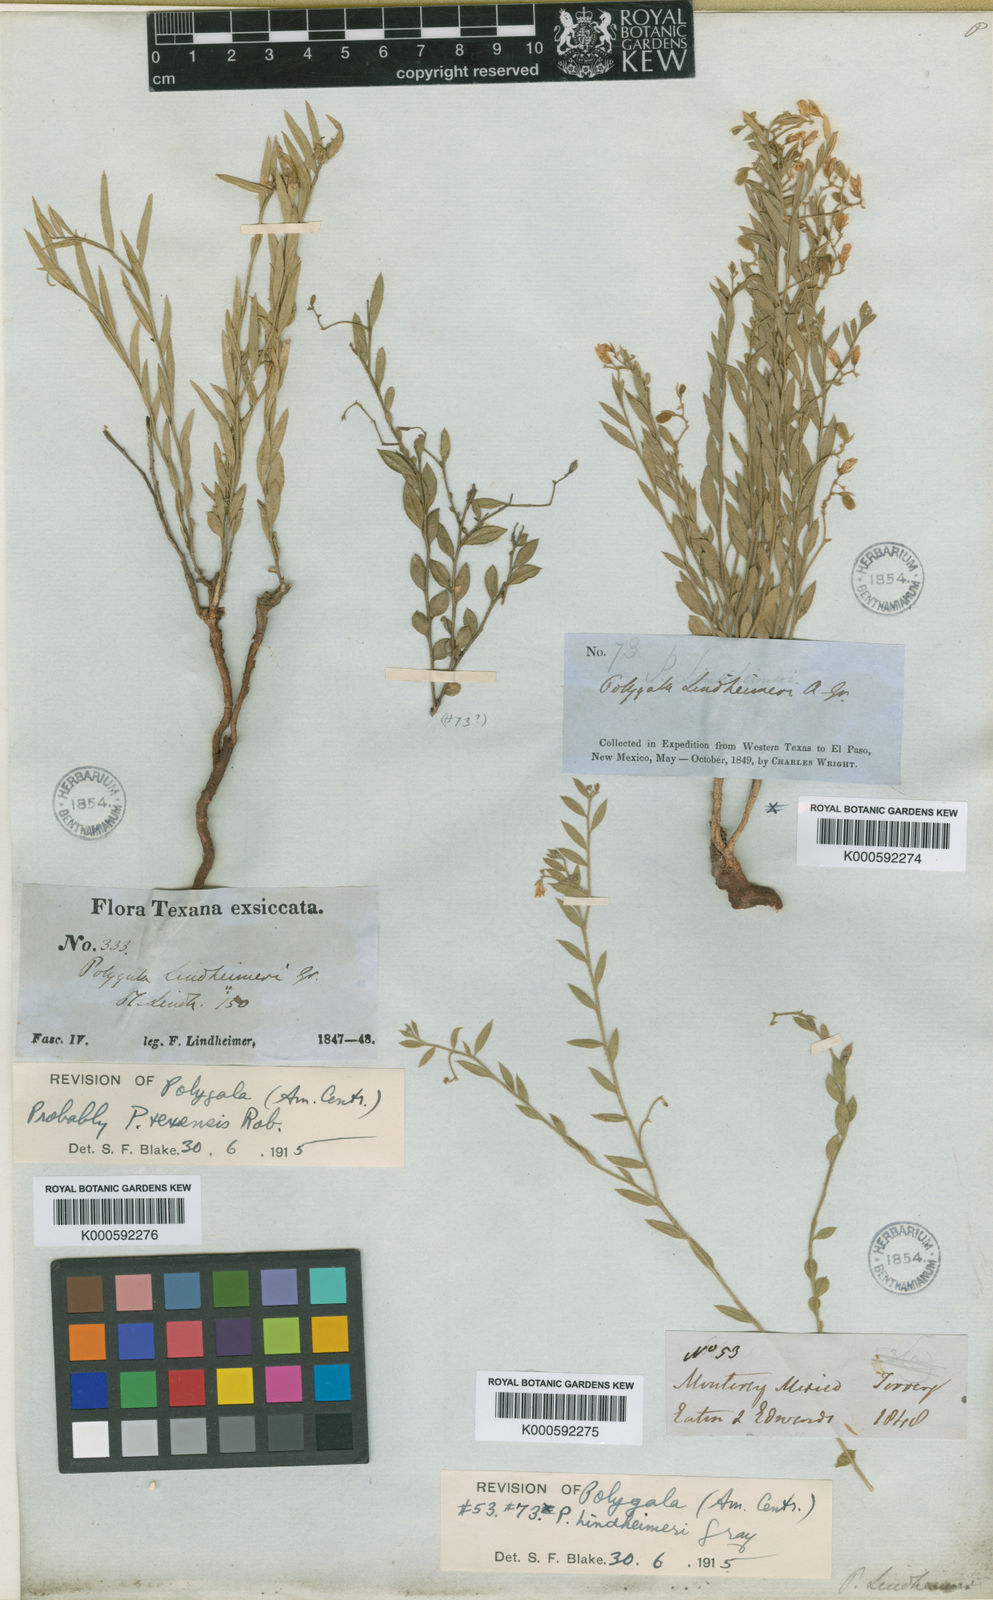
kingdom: Plantae
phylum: Tracheophyta
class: Magnoliopsida
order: Fabales
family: Polygalaceae
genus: Rhinotropis
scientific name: Rhinotropis lindheimeri
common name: Shrubby milkwort
